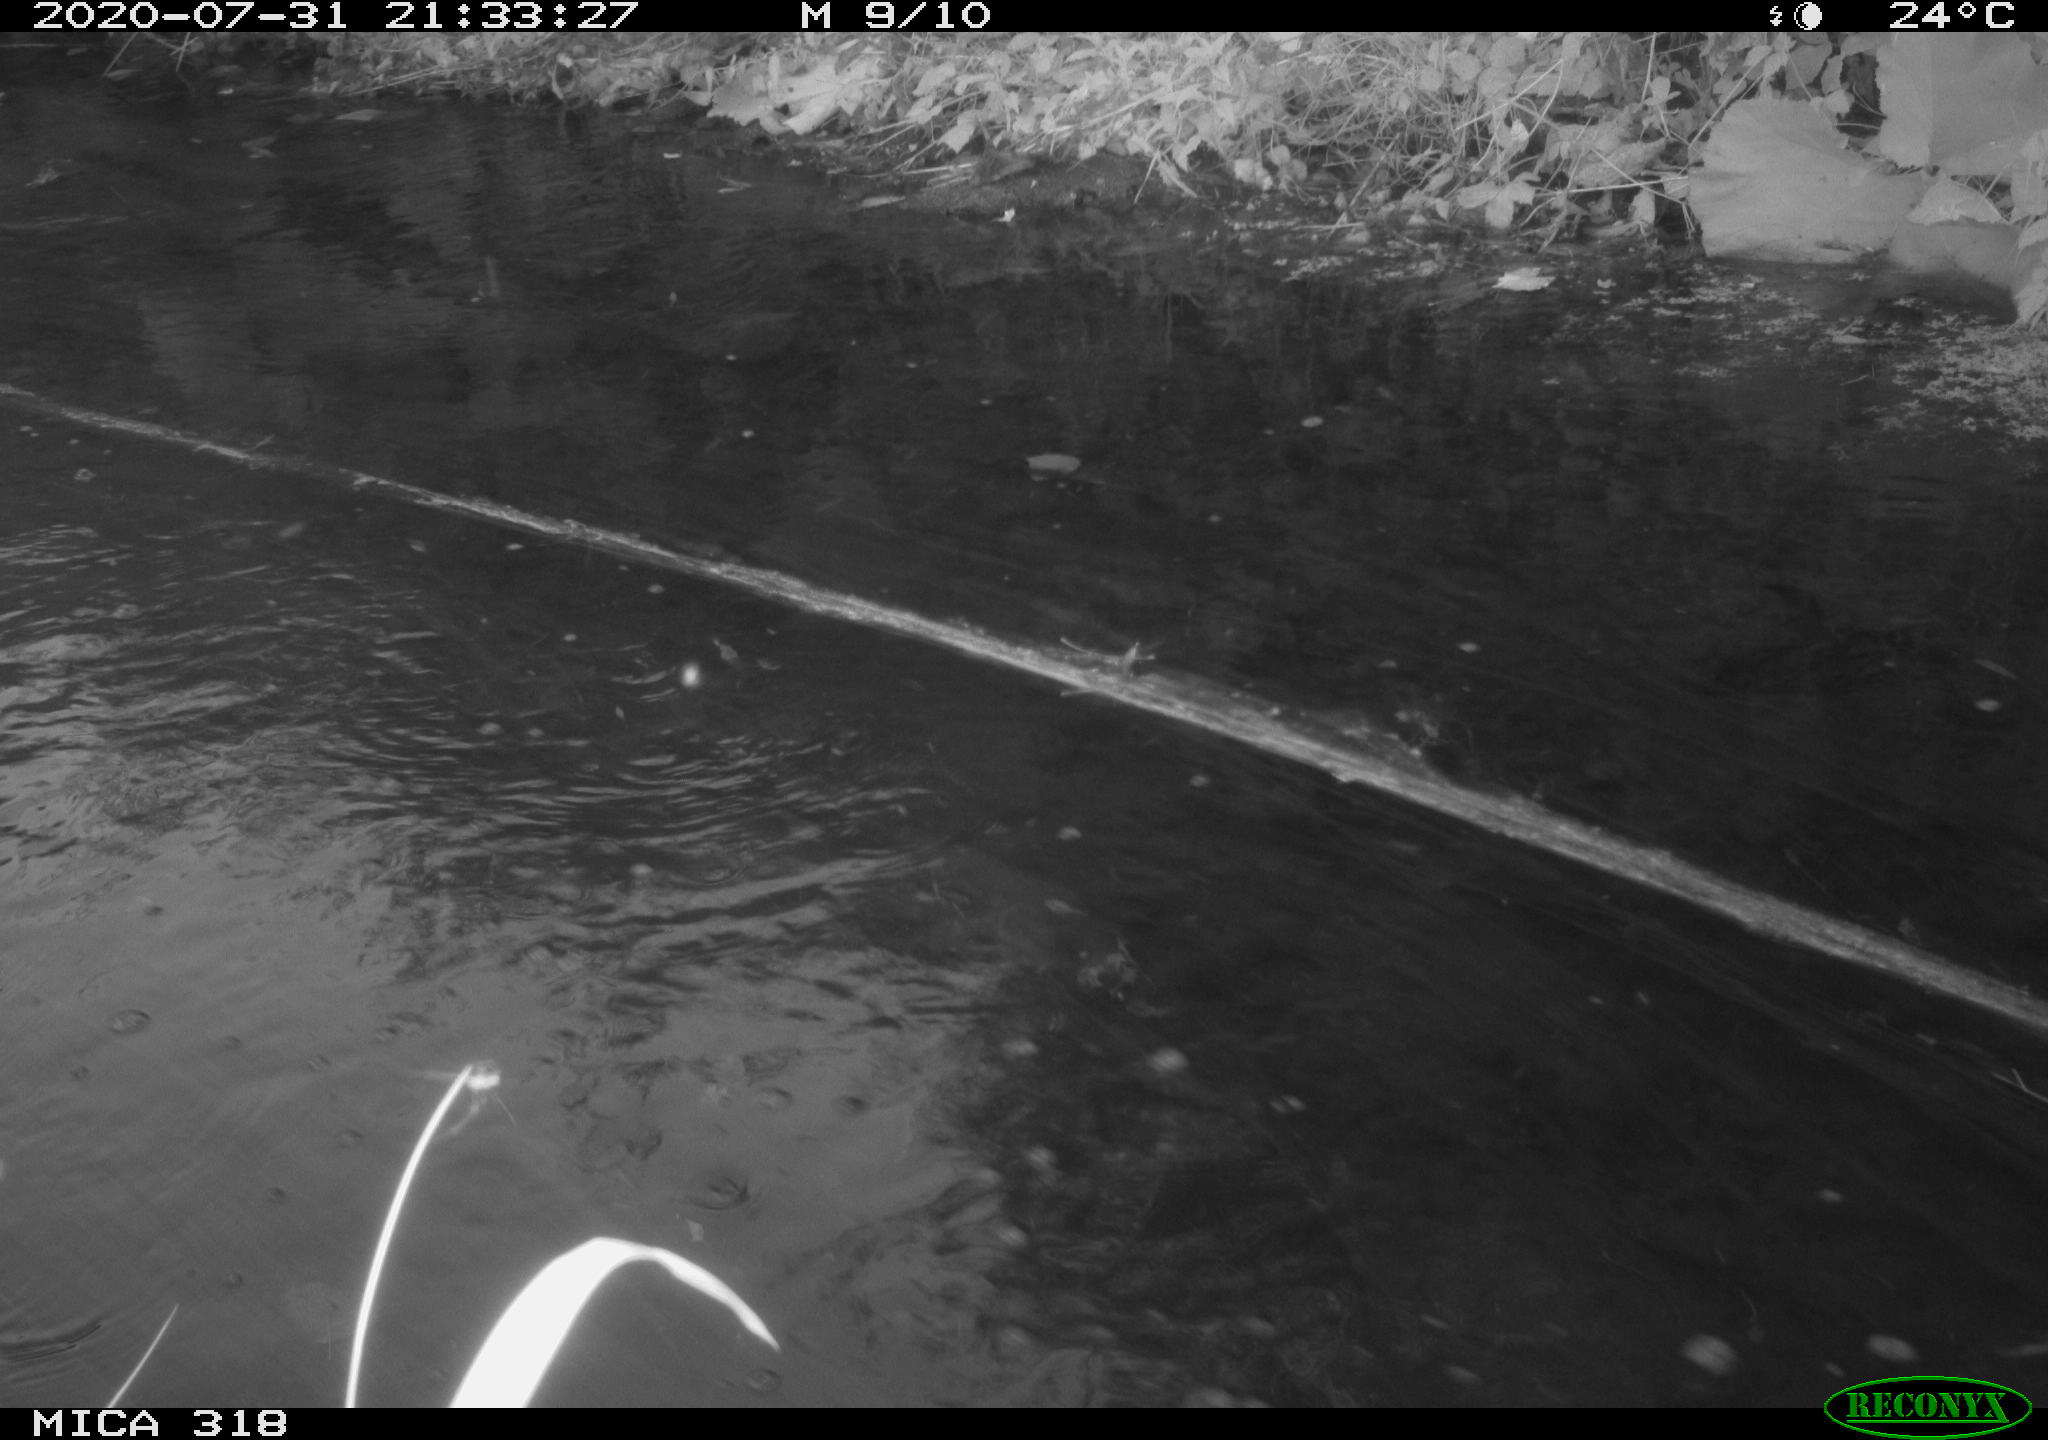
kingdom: Animalia
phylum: Chordata
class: Aves
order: Gruiformes
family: Rallidae
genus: Gallinula
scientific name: Gallinula chloropus
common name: Common moorhen
